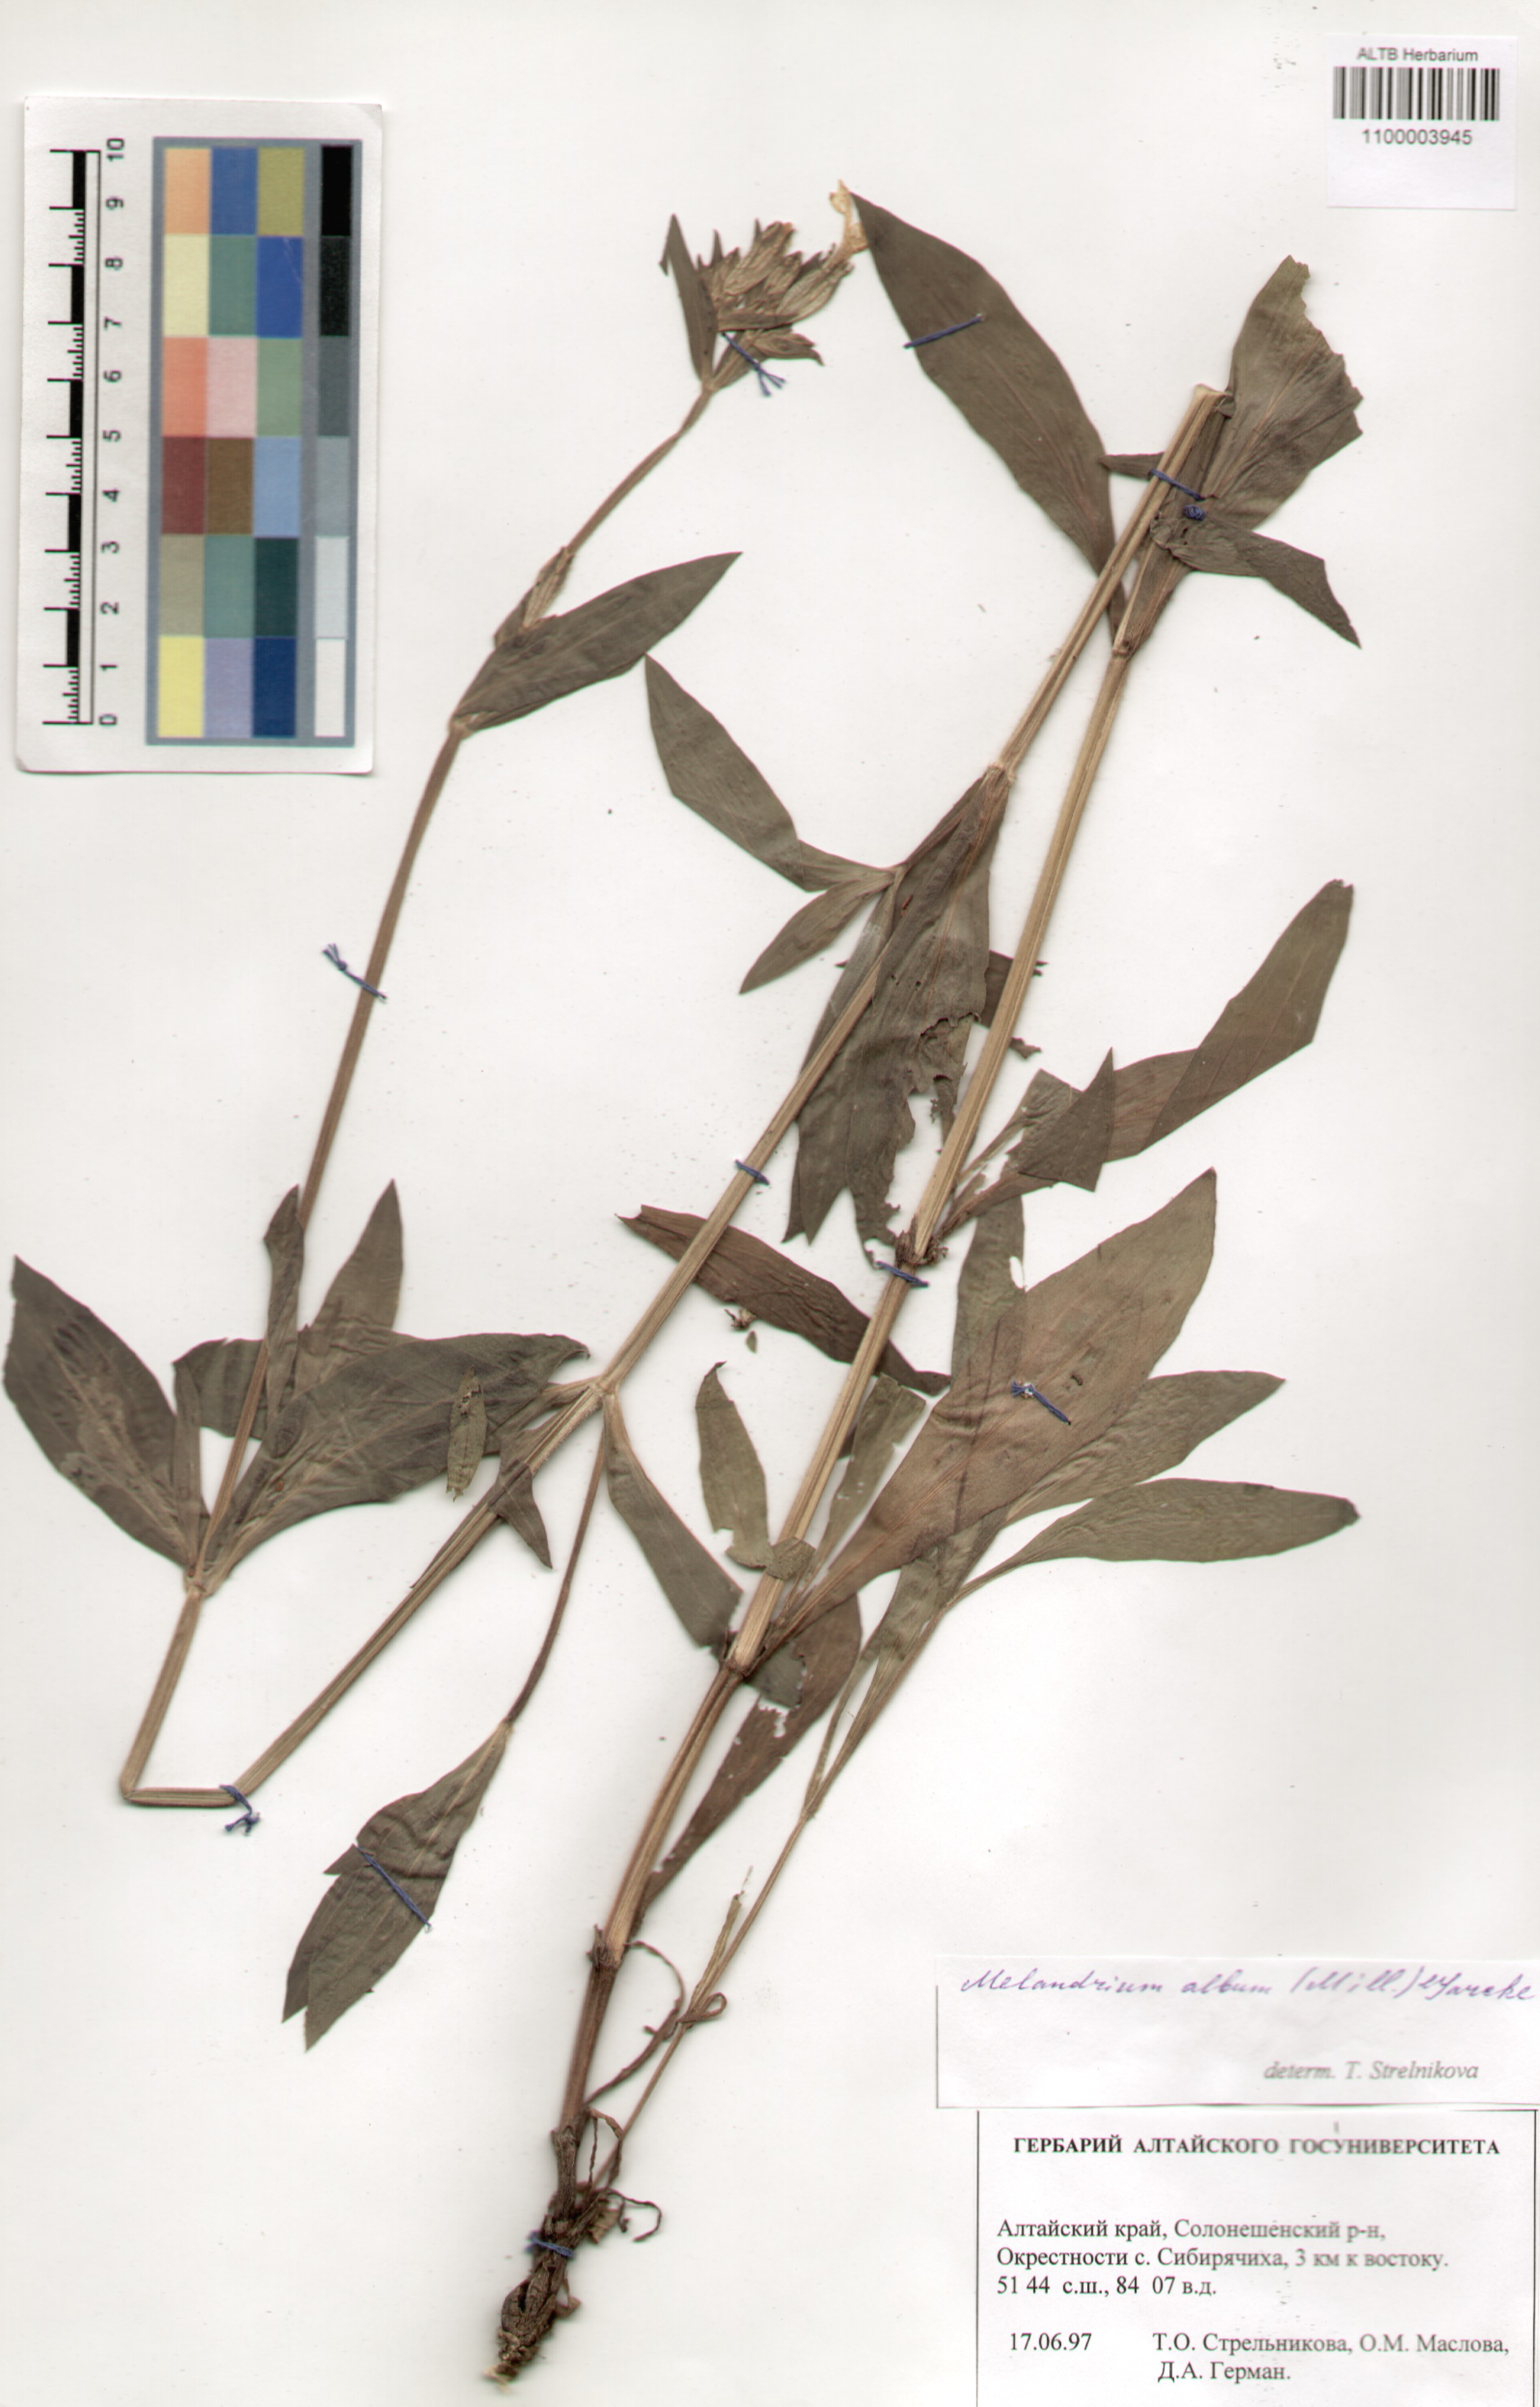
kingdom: Plantae
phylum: Tracheophyta
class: Magnoliopsida
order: Caryophyllales
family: Caryophyllaceae
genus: Silene
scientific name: Silene latifolia
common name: White campion
